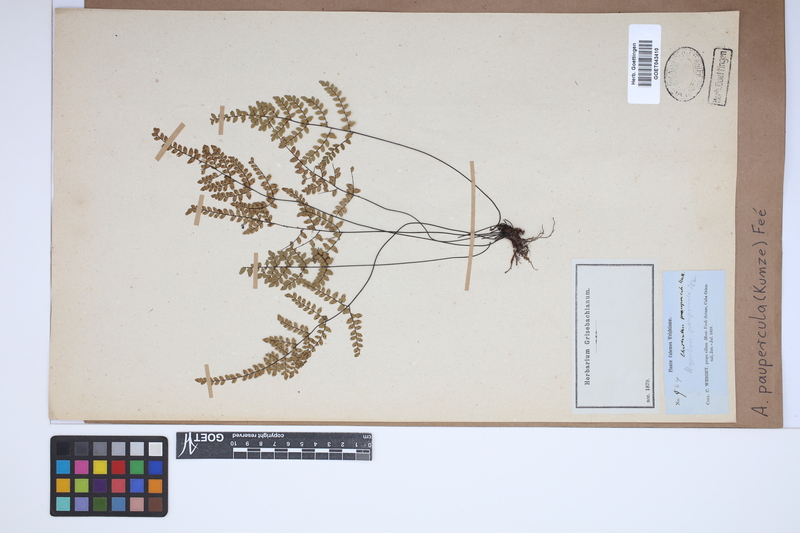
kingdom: Plantae
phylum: Tracheophyta
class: Polypodiopsida
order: Polypodiales
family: Pteridaceae
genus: Adiantopsis
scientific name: Adiantopsis paupercula
